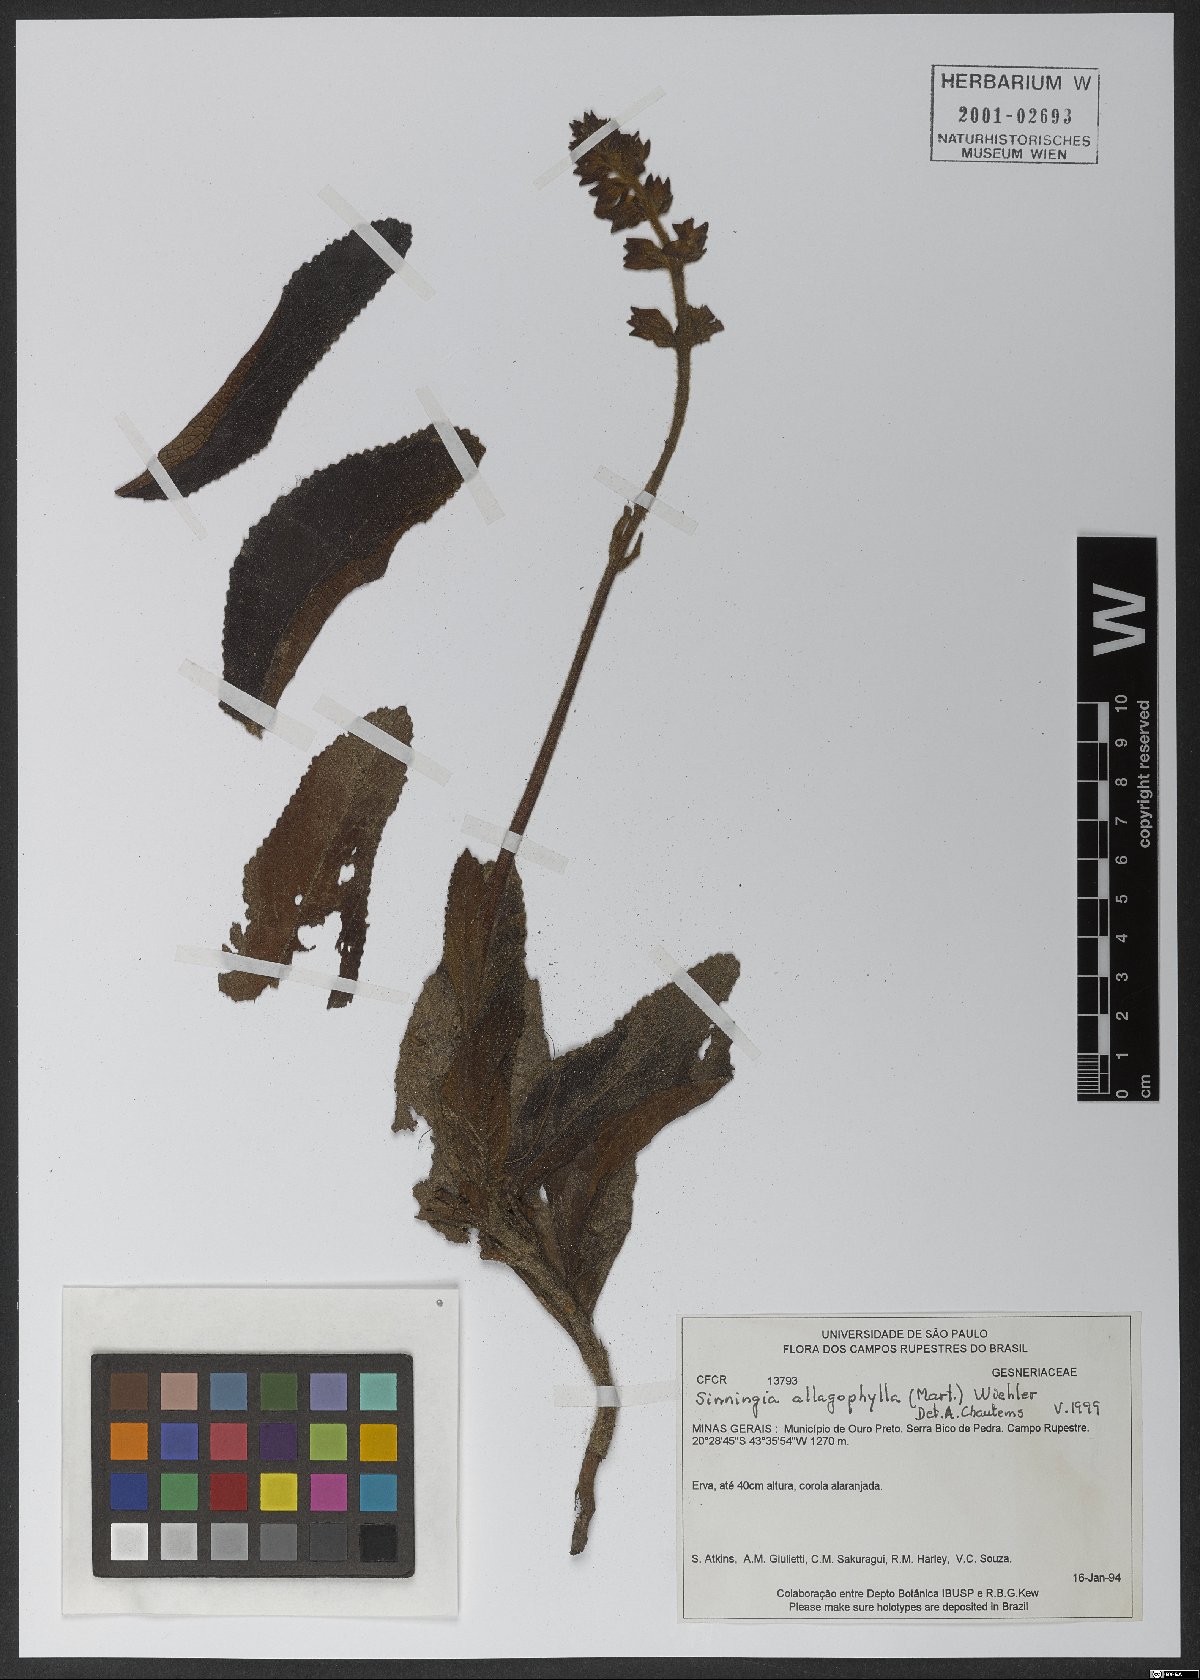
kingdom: Plantae
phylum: Tracheophyta
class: Magnoliopsida
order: Lamiales
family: Gesneriaceae
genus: Sinningia
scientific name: Sinningia allagophylla
